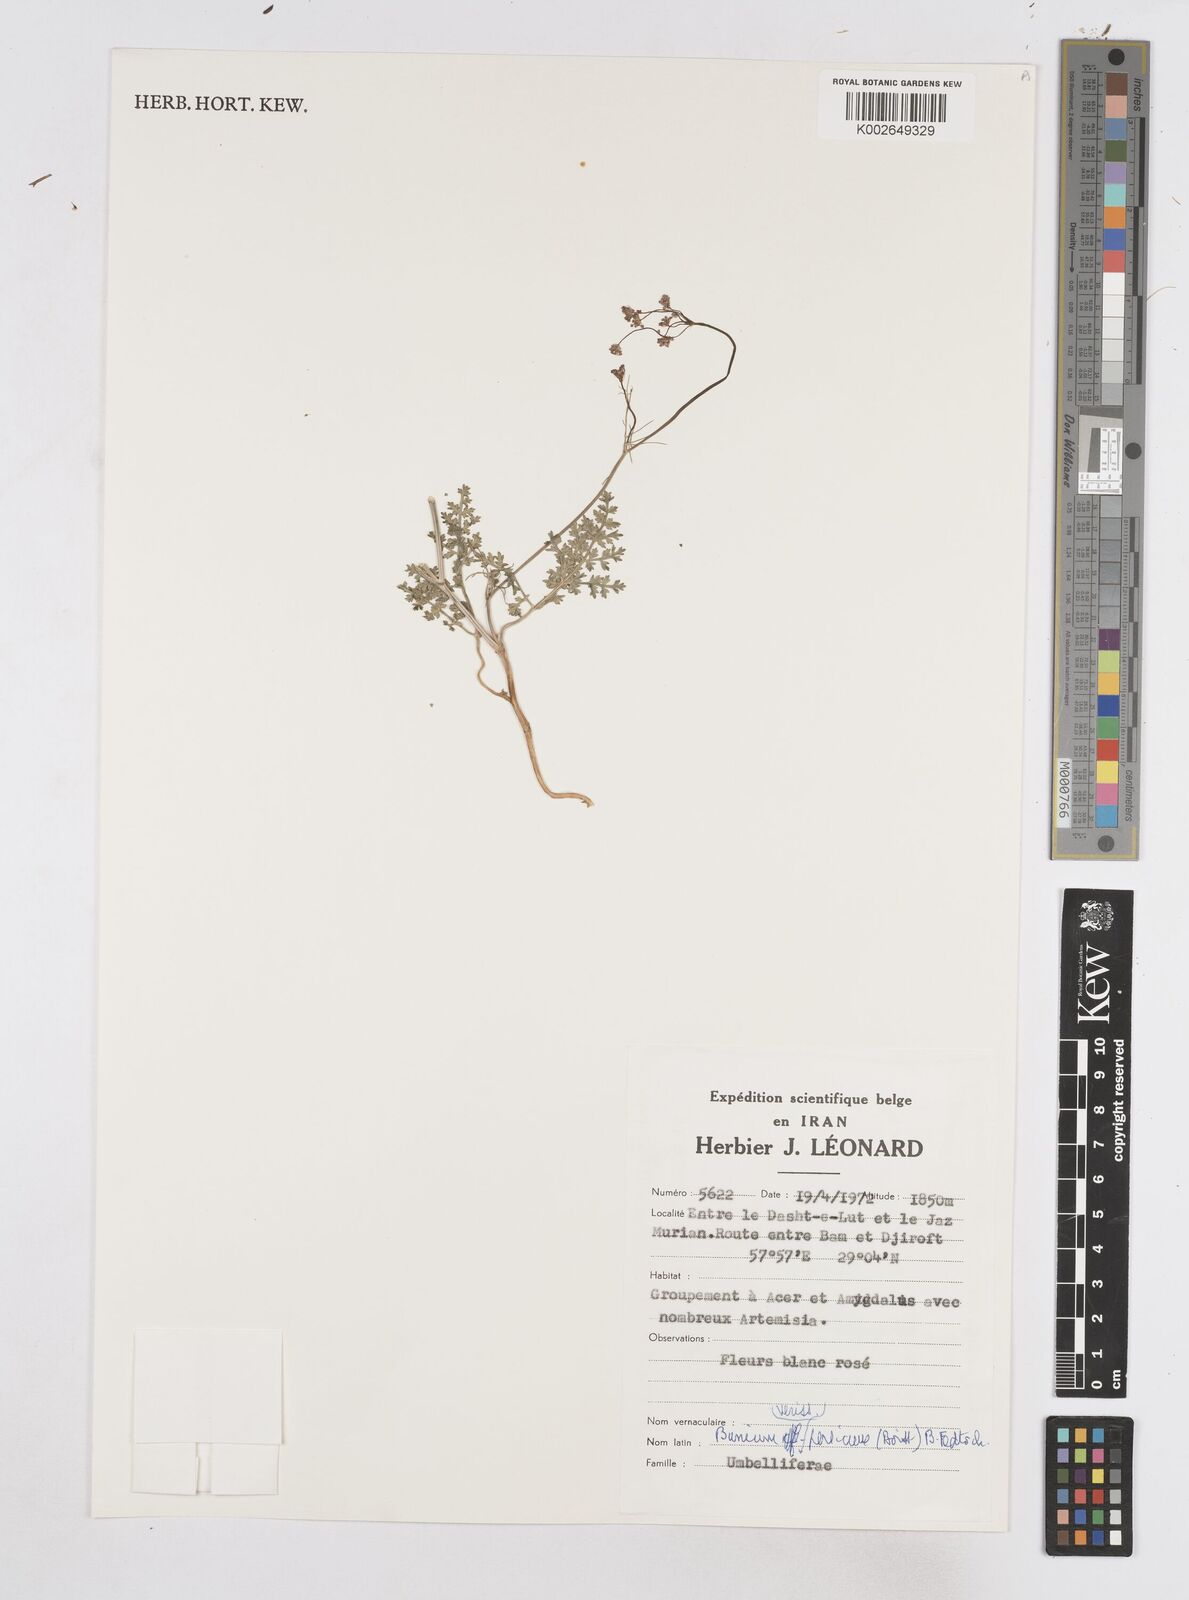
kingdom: Plantae
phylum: Tracheophyta
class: Magnoliopsida
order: Apiales
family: Apiaceae
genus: Elwendia
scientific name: Elwendia persica
